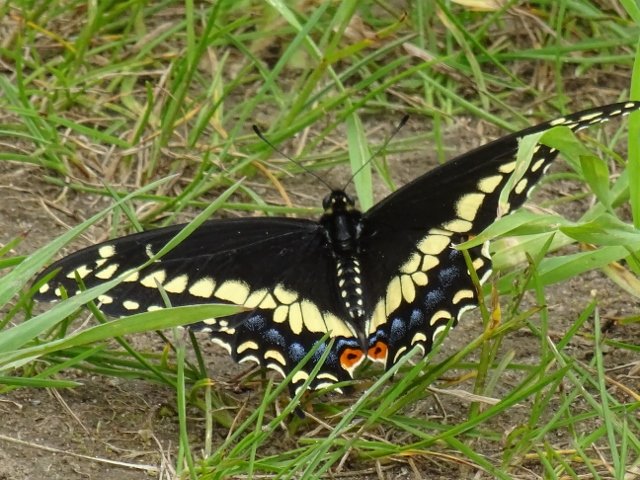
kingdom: Animalia
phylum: Arthropoda
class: Insecta
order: Lepidoptera
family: Papilionidae
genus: Papilio
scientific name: Papilio polyxenes
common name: Black Swallowtail
